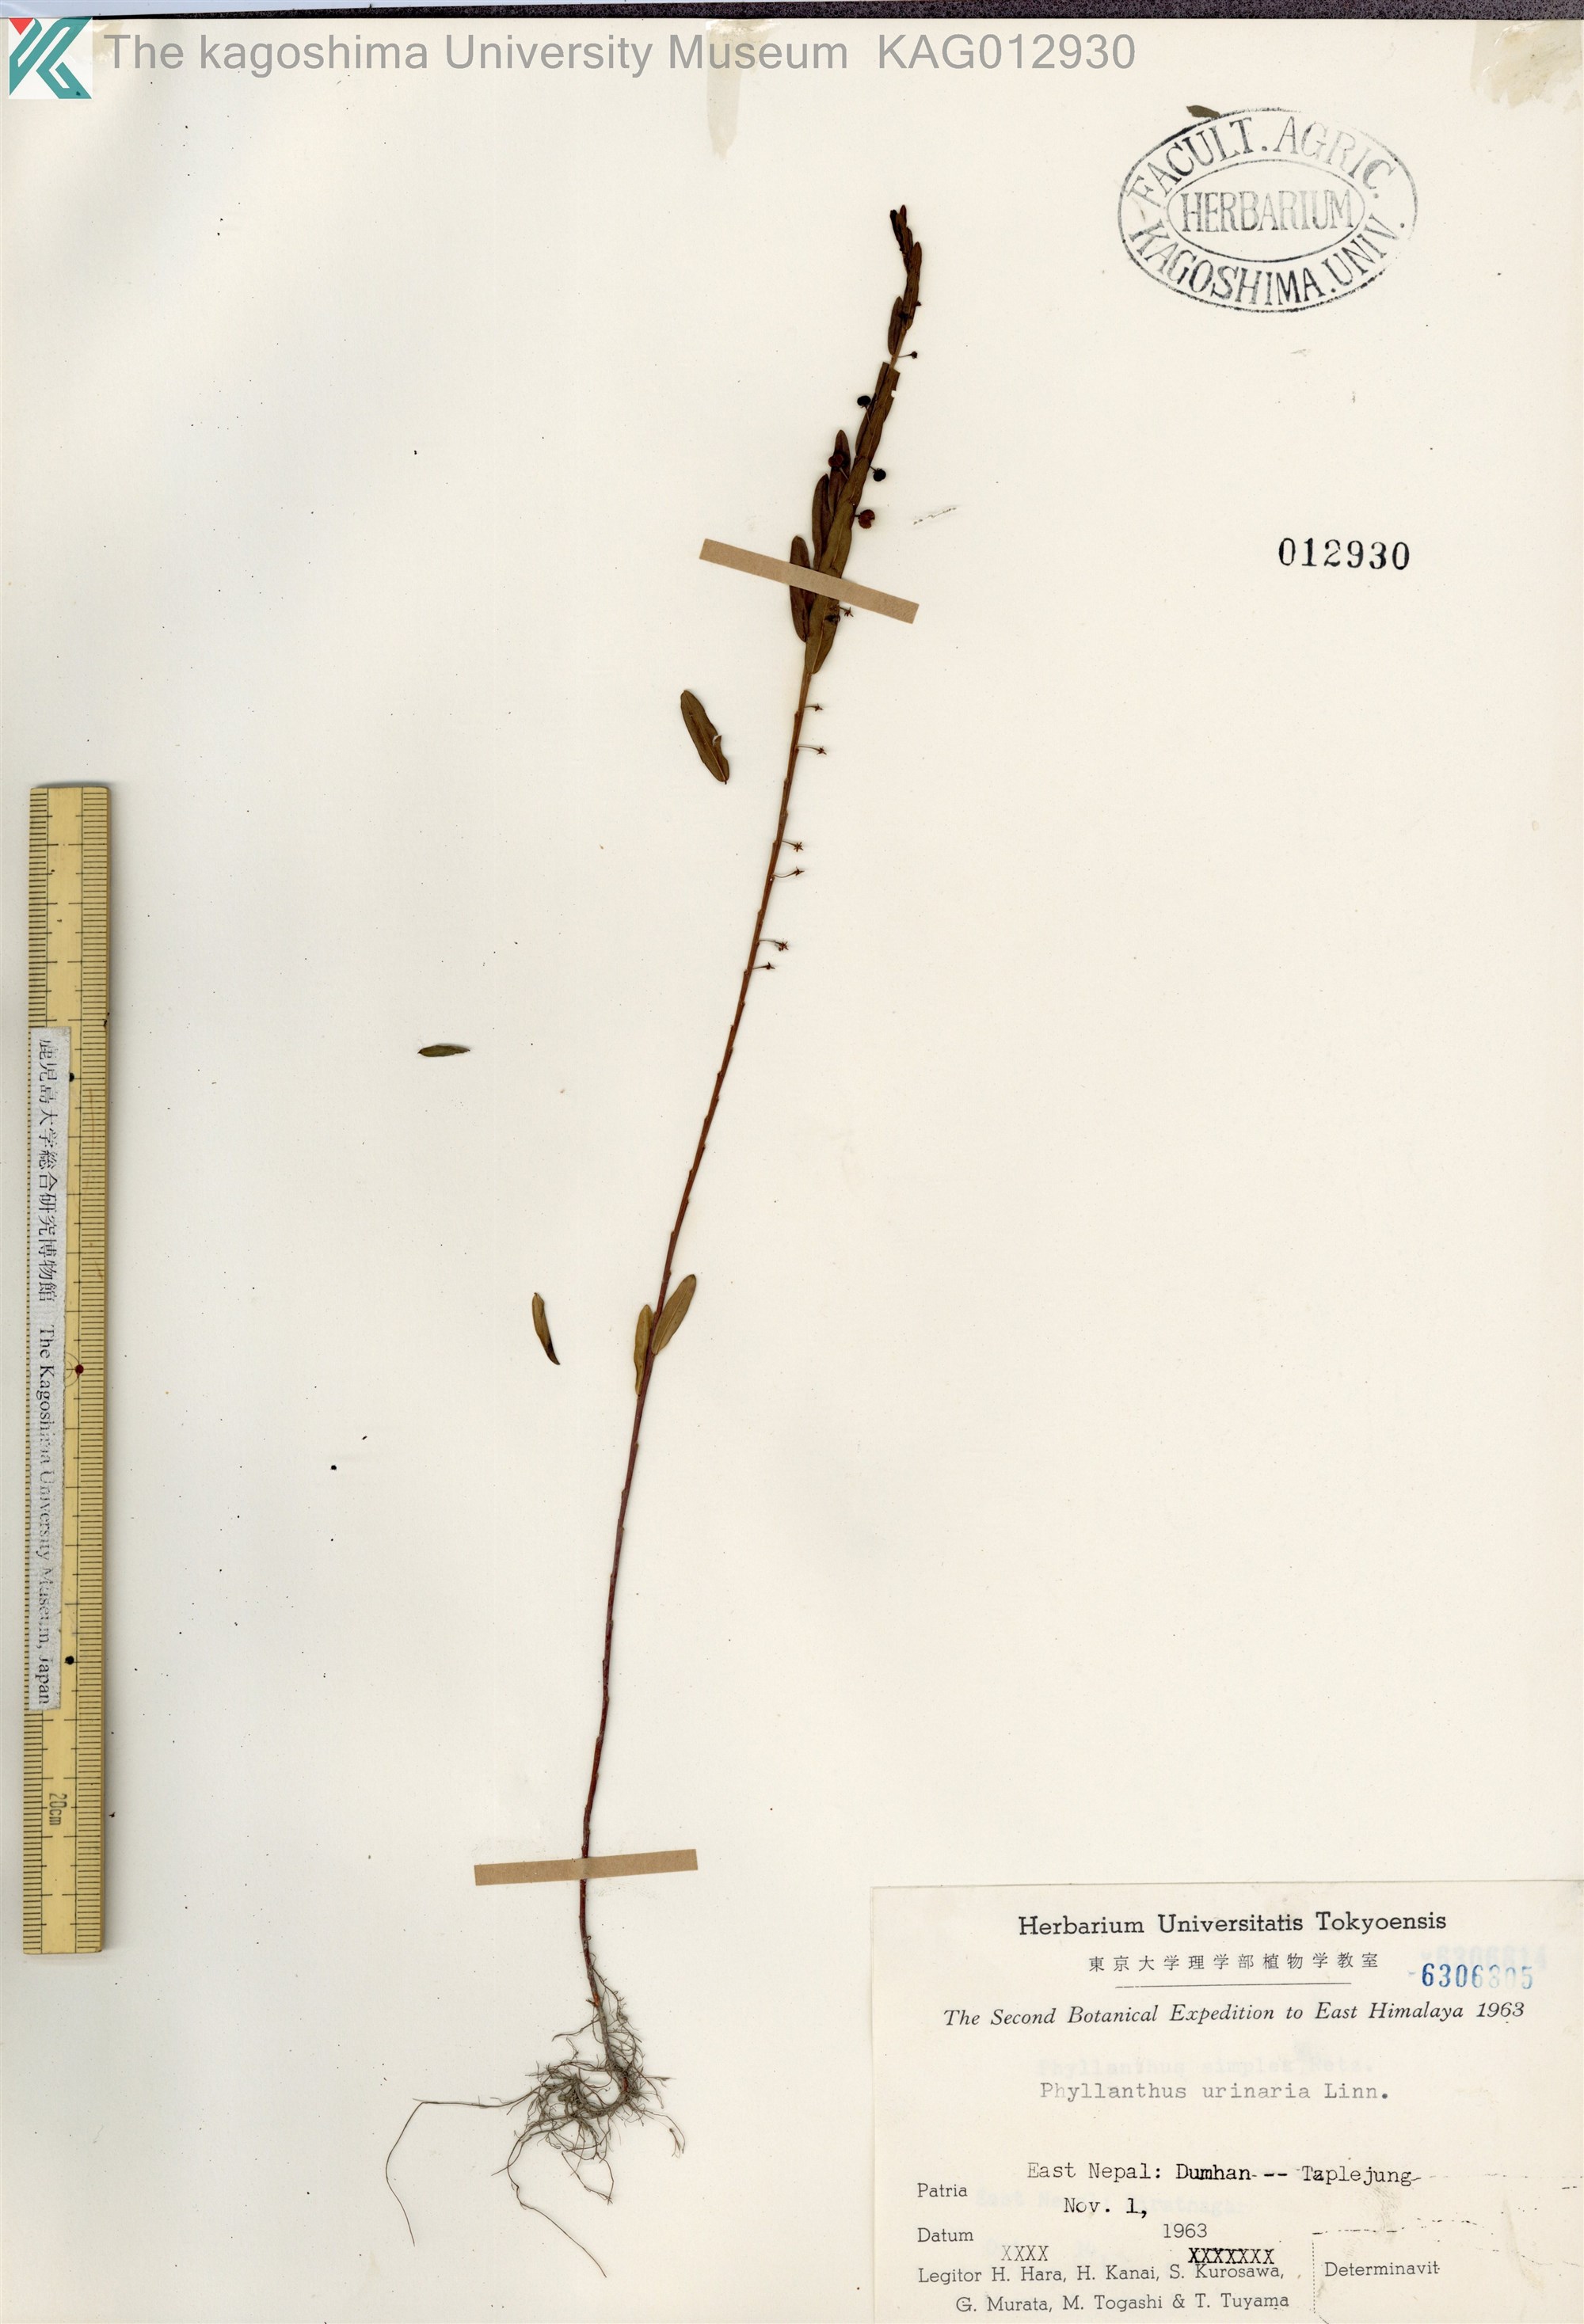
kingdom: Plantae
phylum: Tracheophyta
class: Magnoliopsida
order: Malpighiales
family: Phyllanthaceae
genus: Phyllanthus
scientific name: Phyllanthus virgatus
